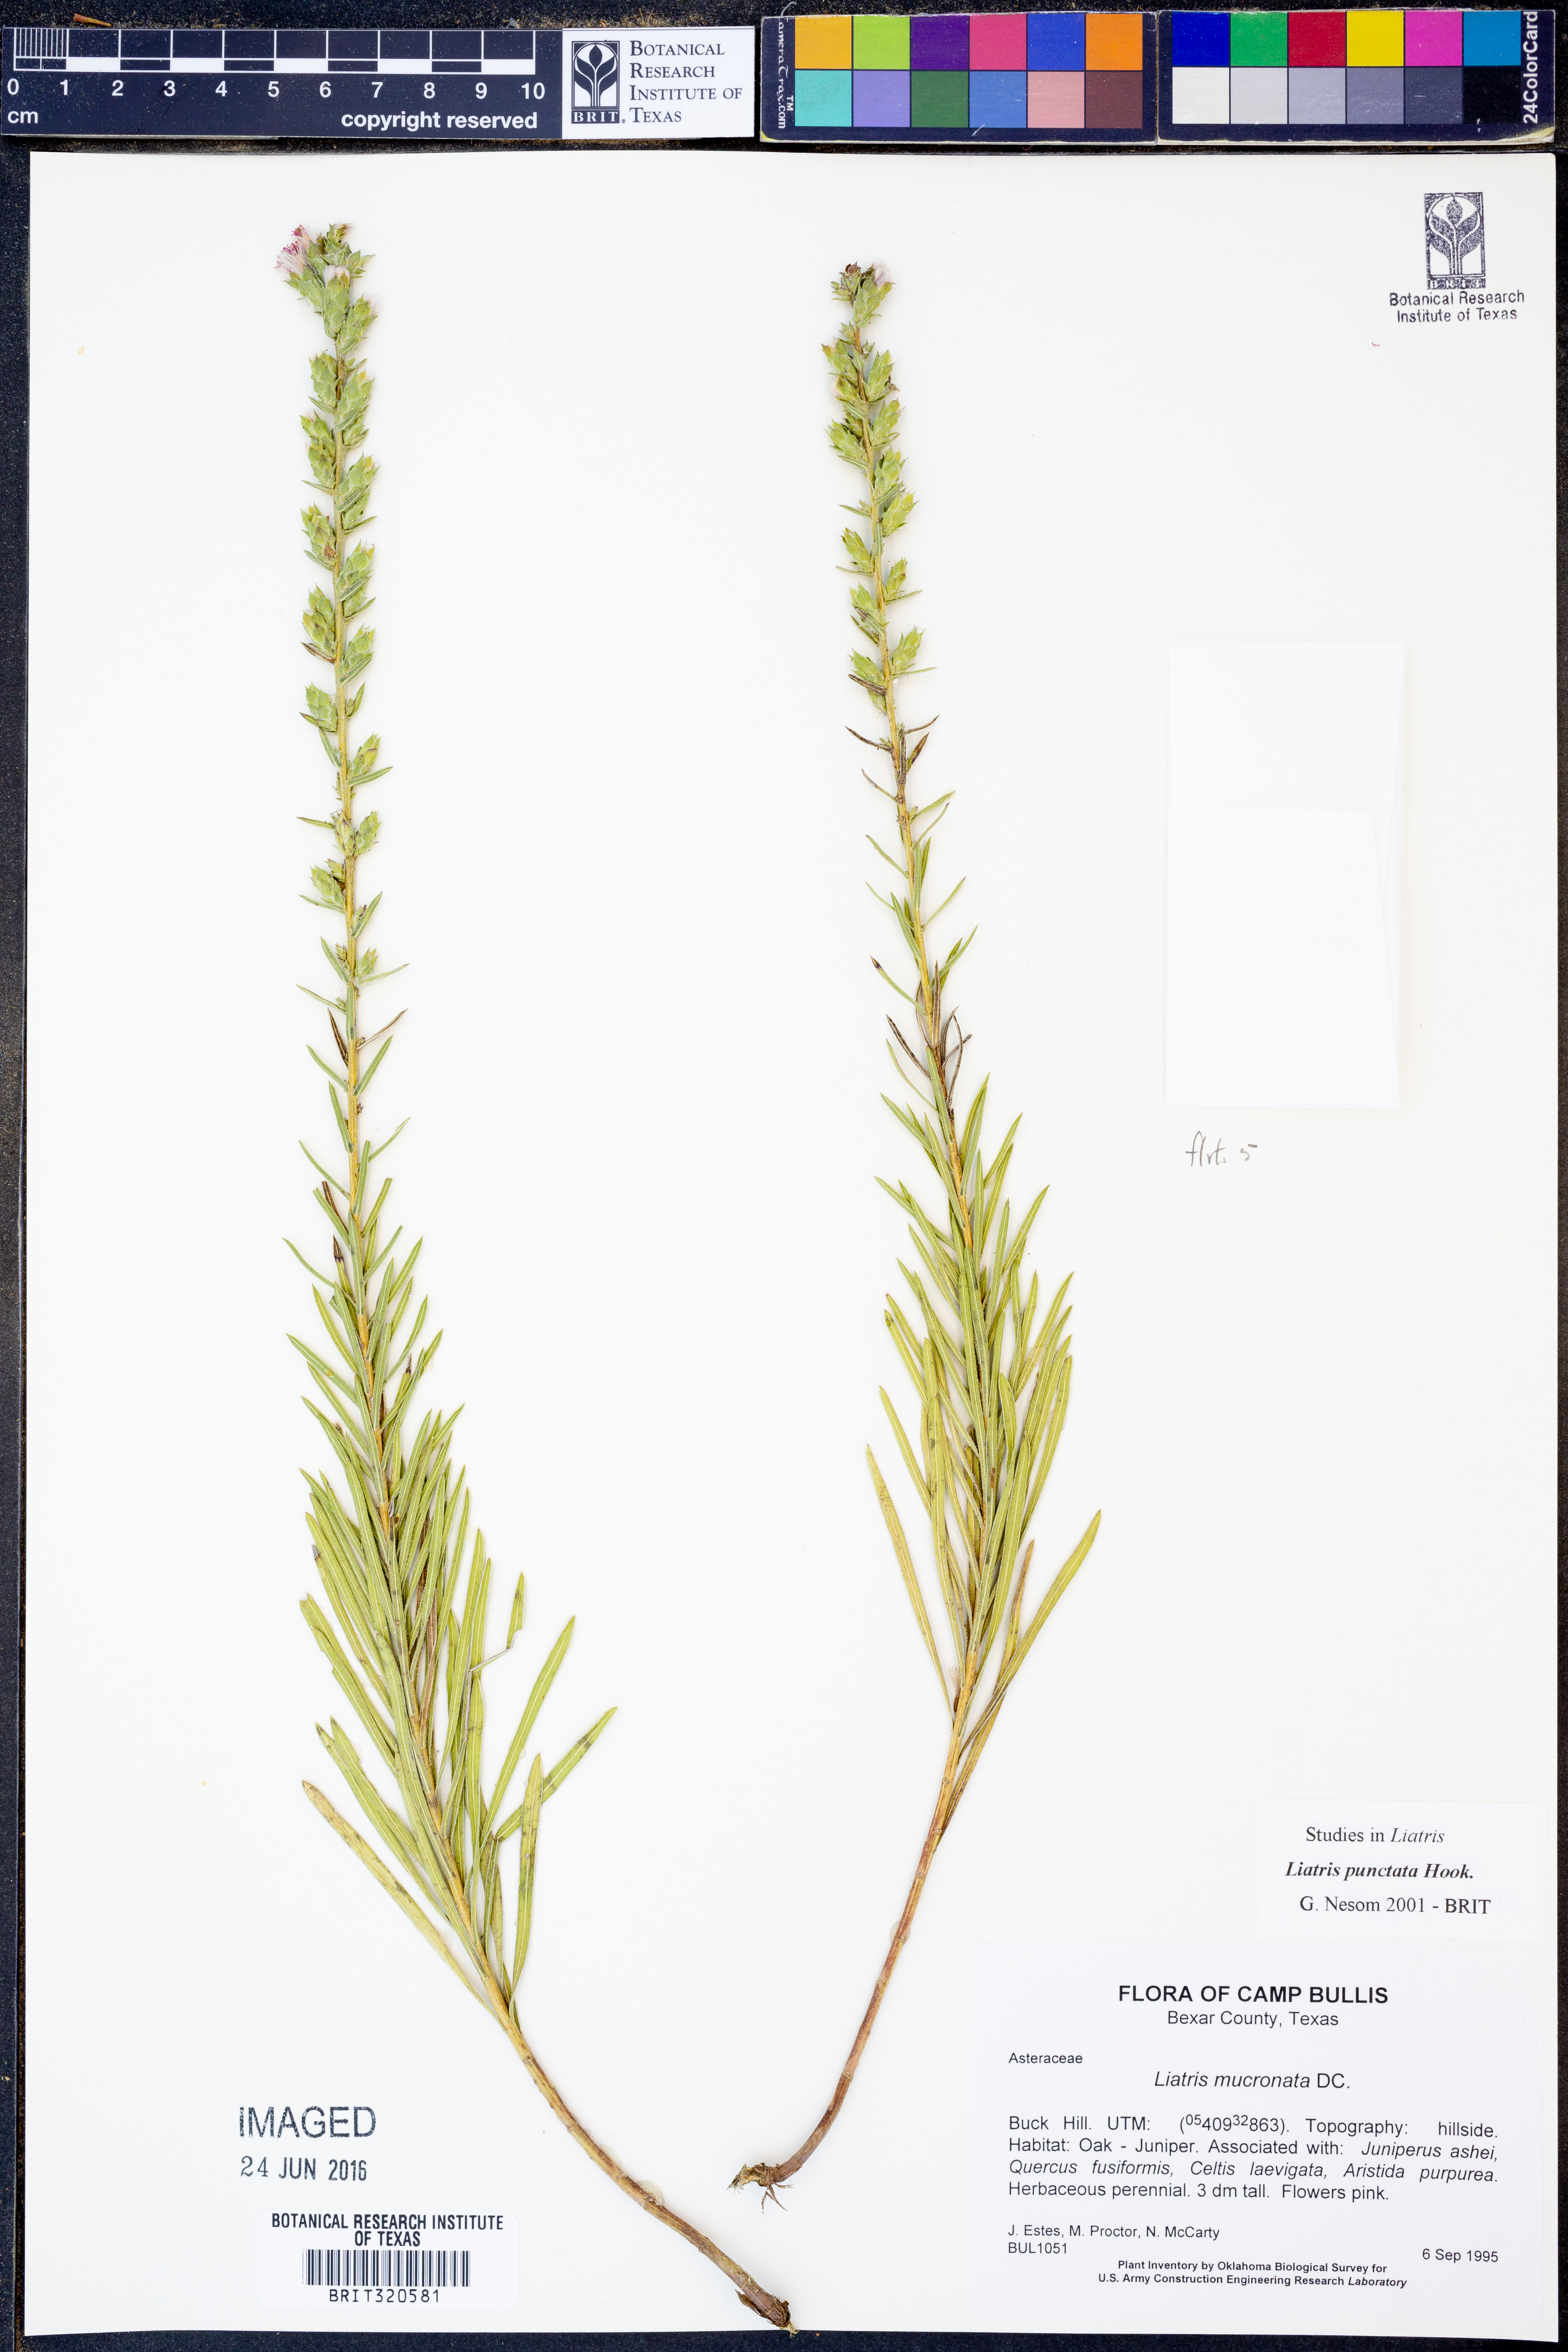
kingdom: Plantae
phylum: Tracheophyta
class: Magnoliopsida
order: Asterales
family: Asteraceae
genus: Liatris
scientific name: Liatris punctata
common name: Dotted gayfeather
